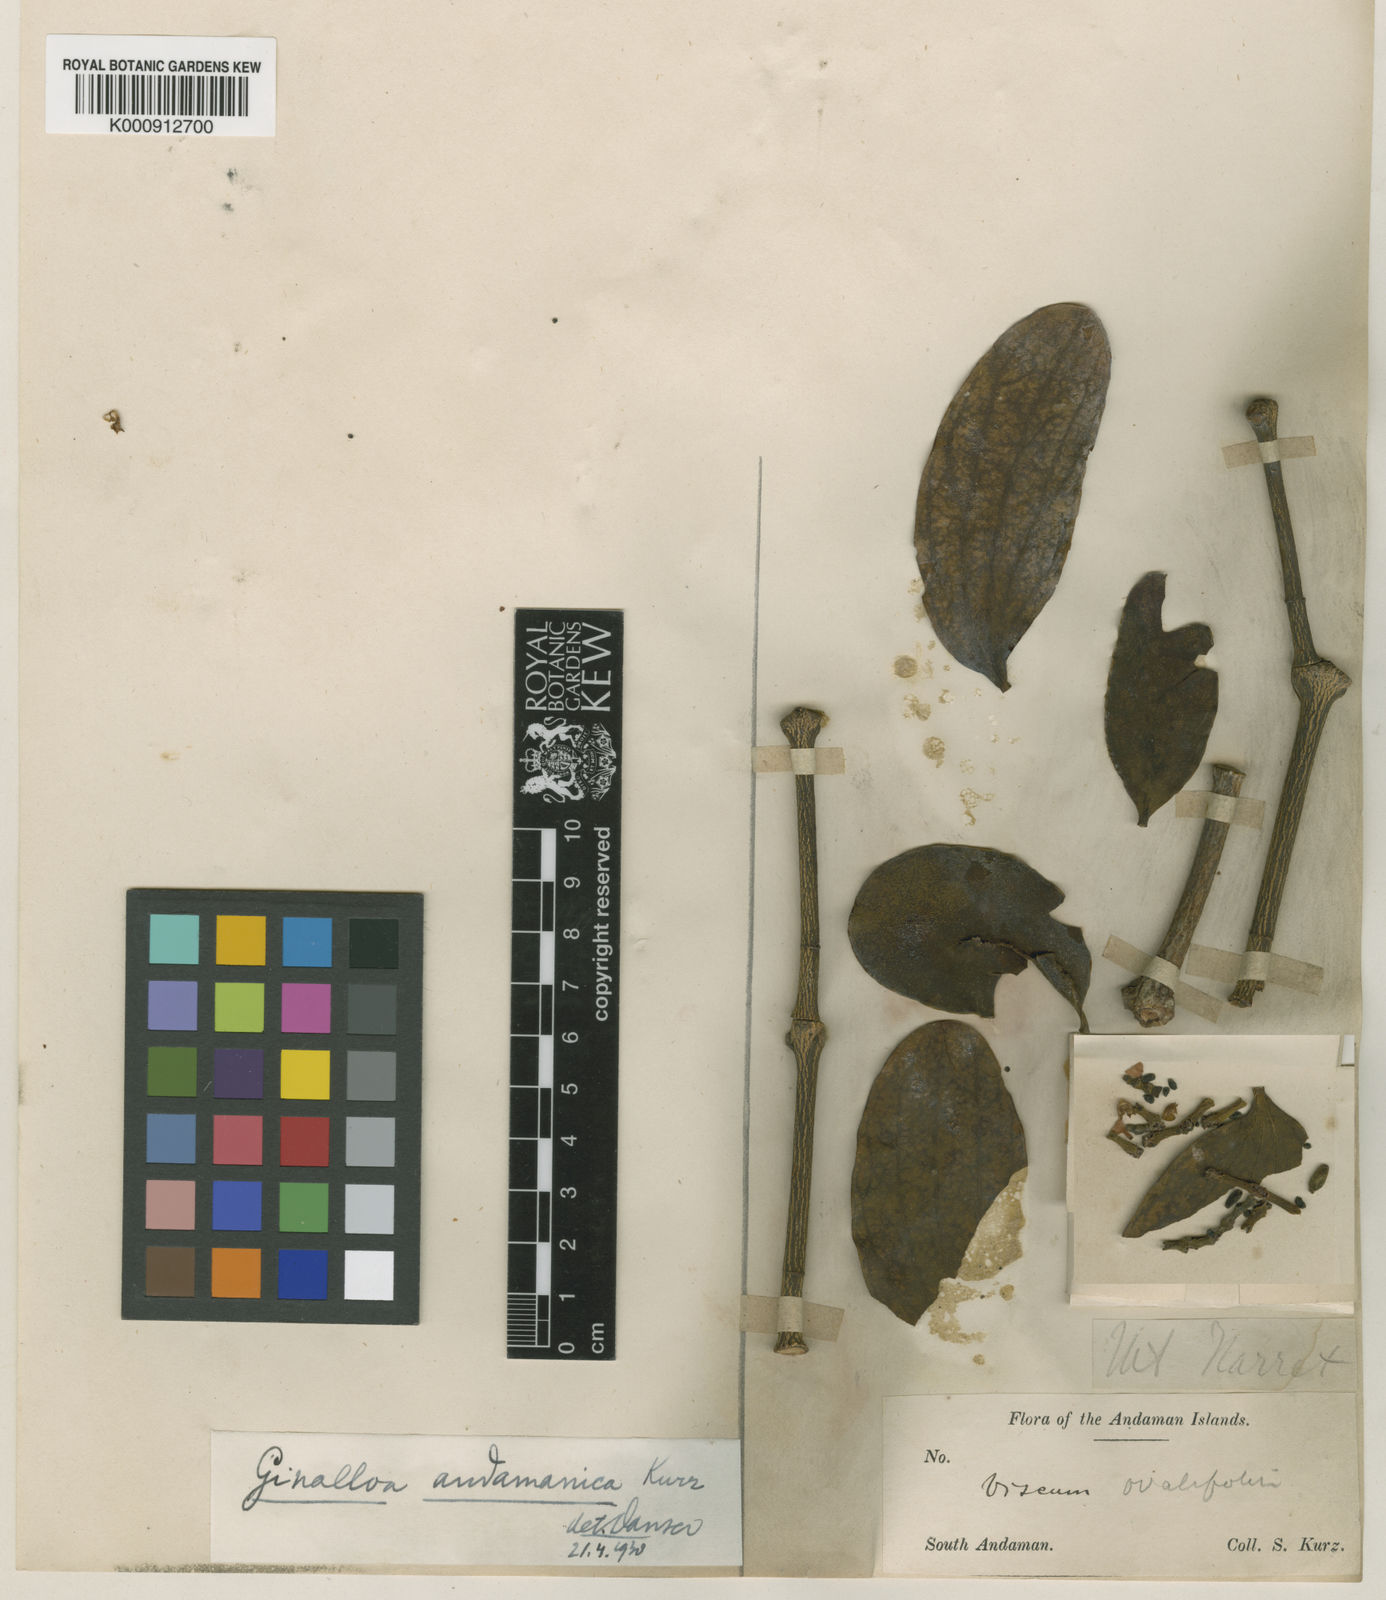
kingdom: Plantae
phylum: Tracheophyta
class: Magnoliopsida
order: Santalales
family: Viscaceae
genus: Ginalloa
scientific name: Ginalloa andamanica
